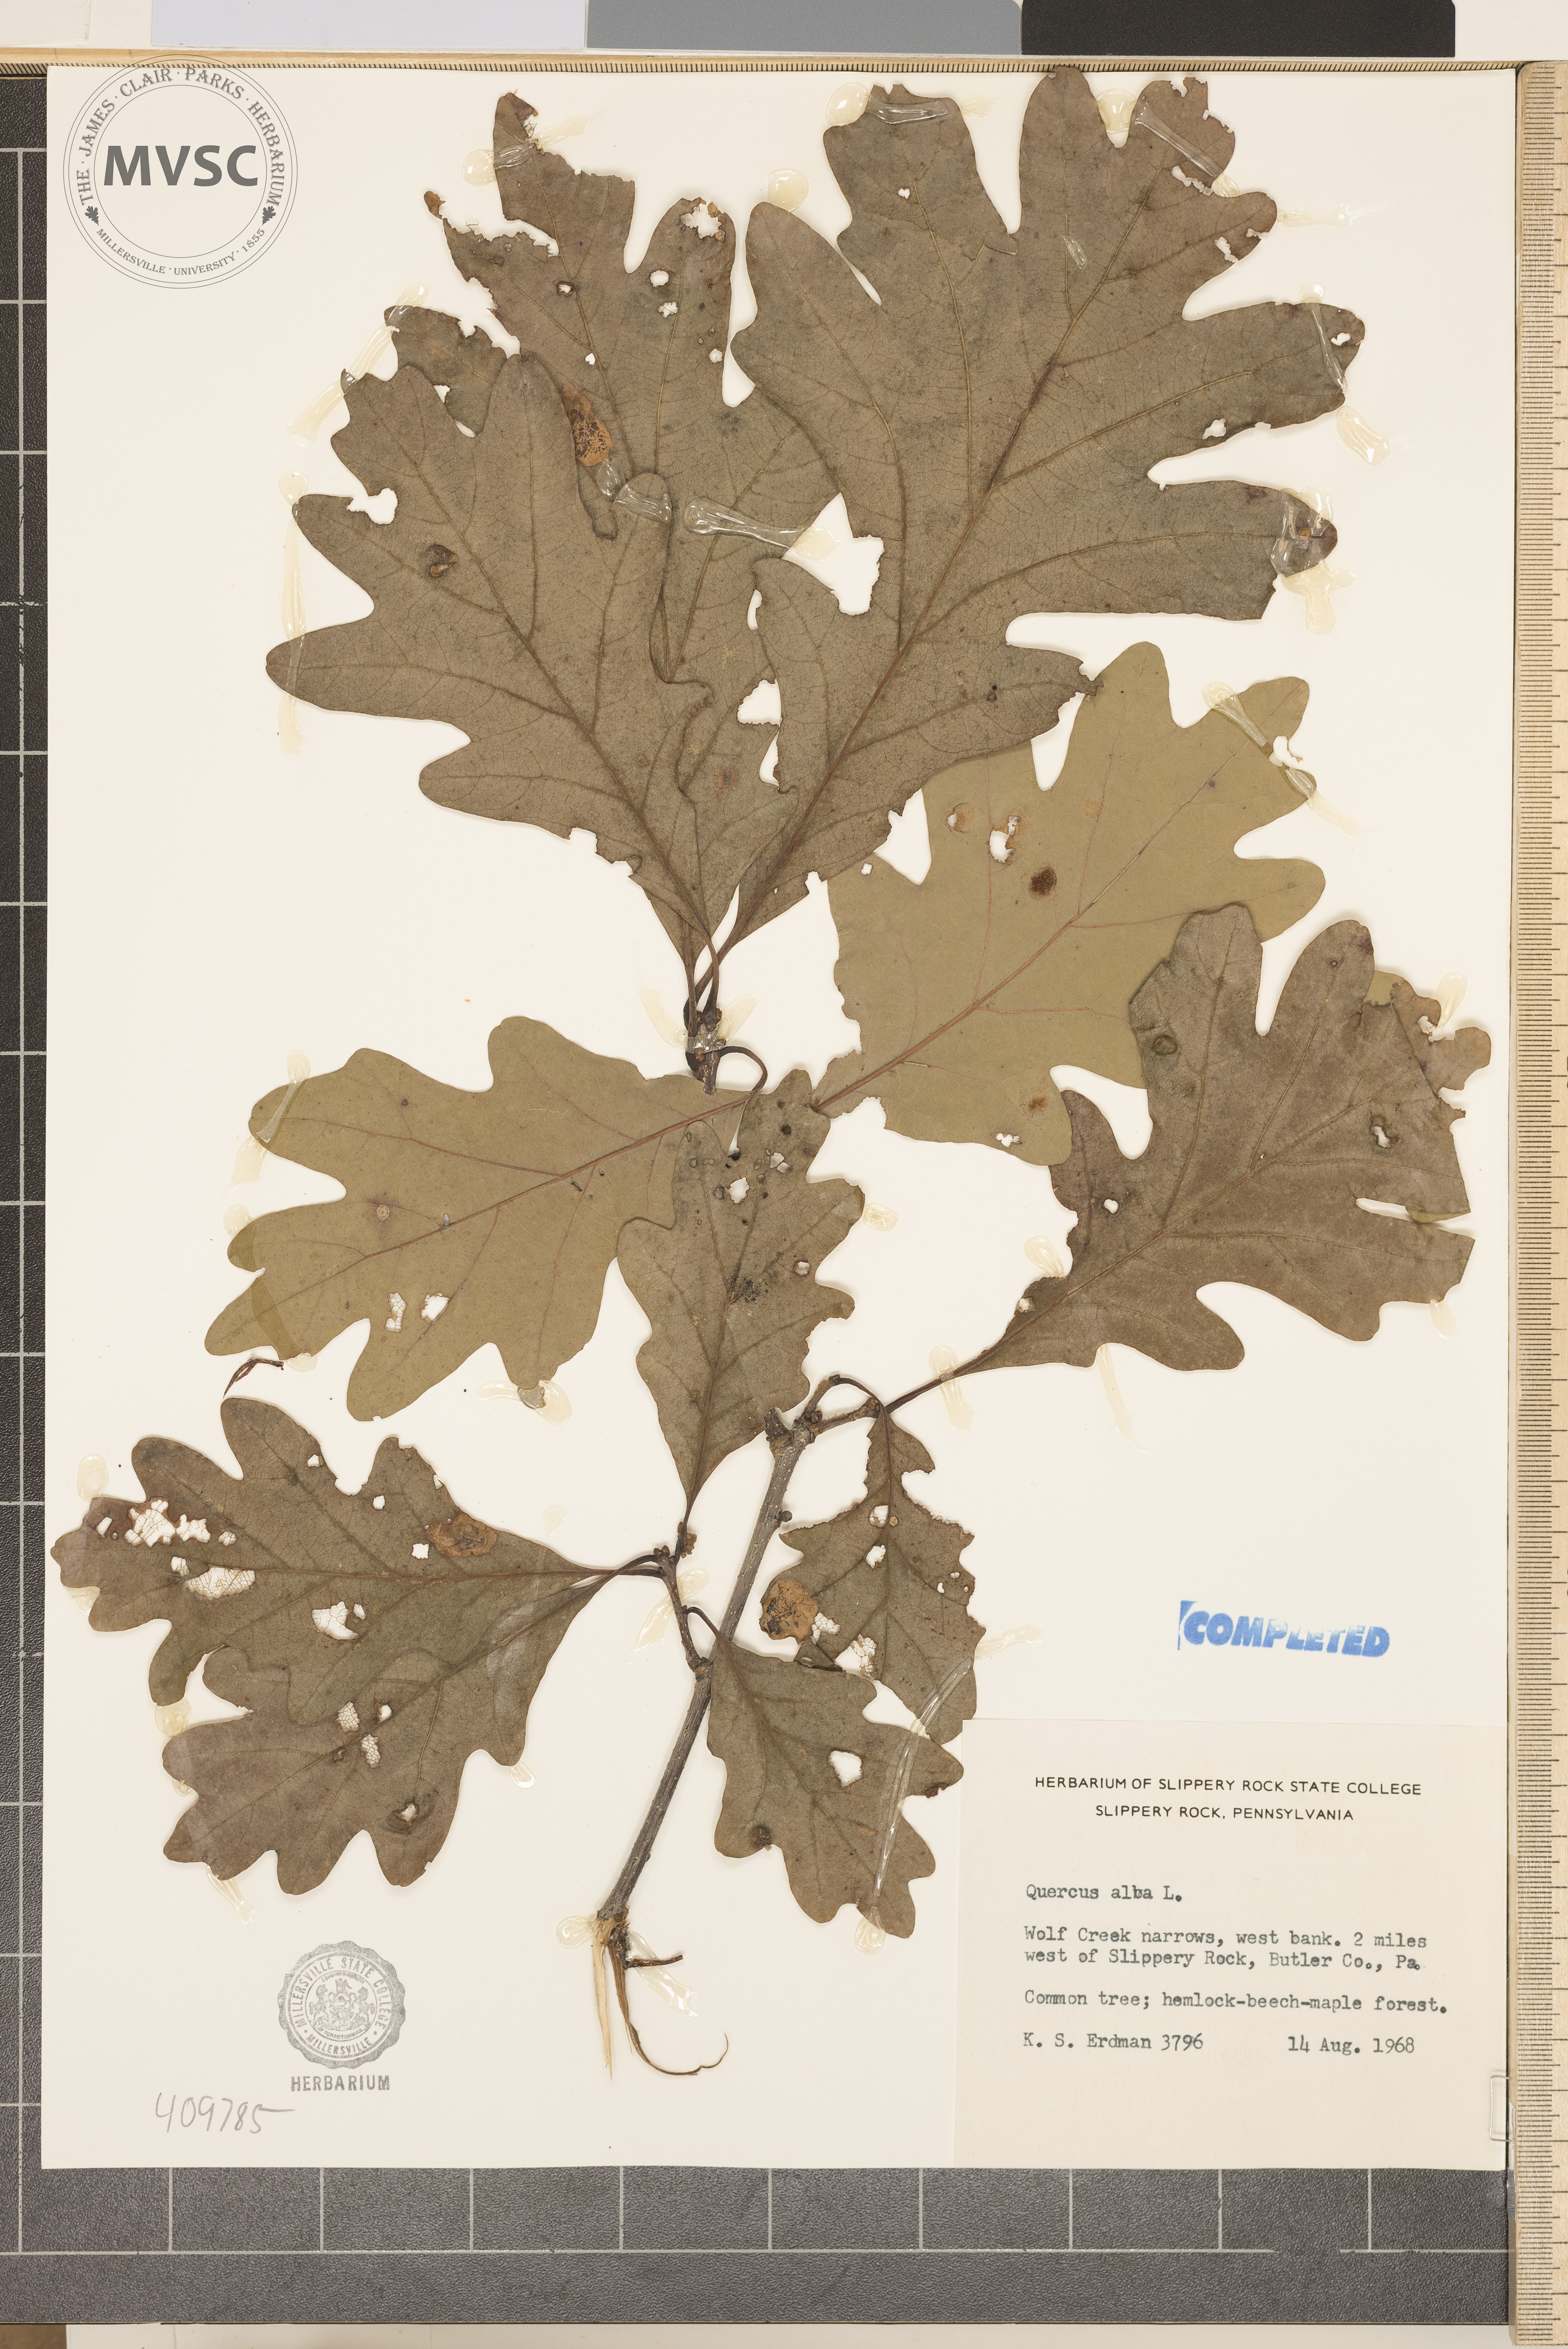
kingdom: Plantae
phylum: Tracheophyta
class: Magnoliopsida
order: Fagales
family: Fagaceae
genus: Quercus
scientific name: Quercus alba
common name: White oak
